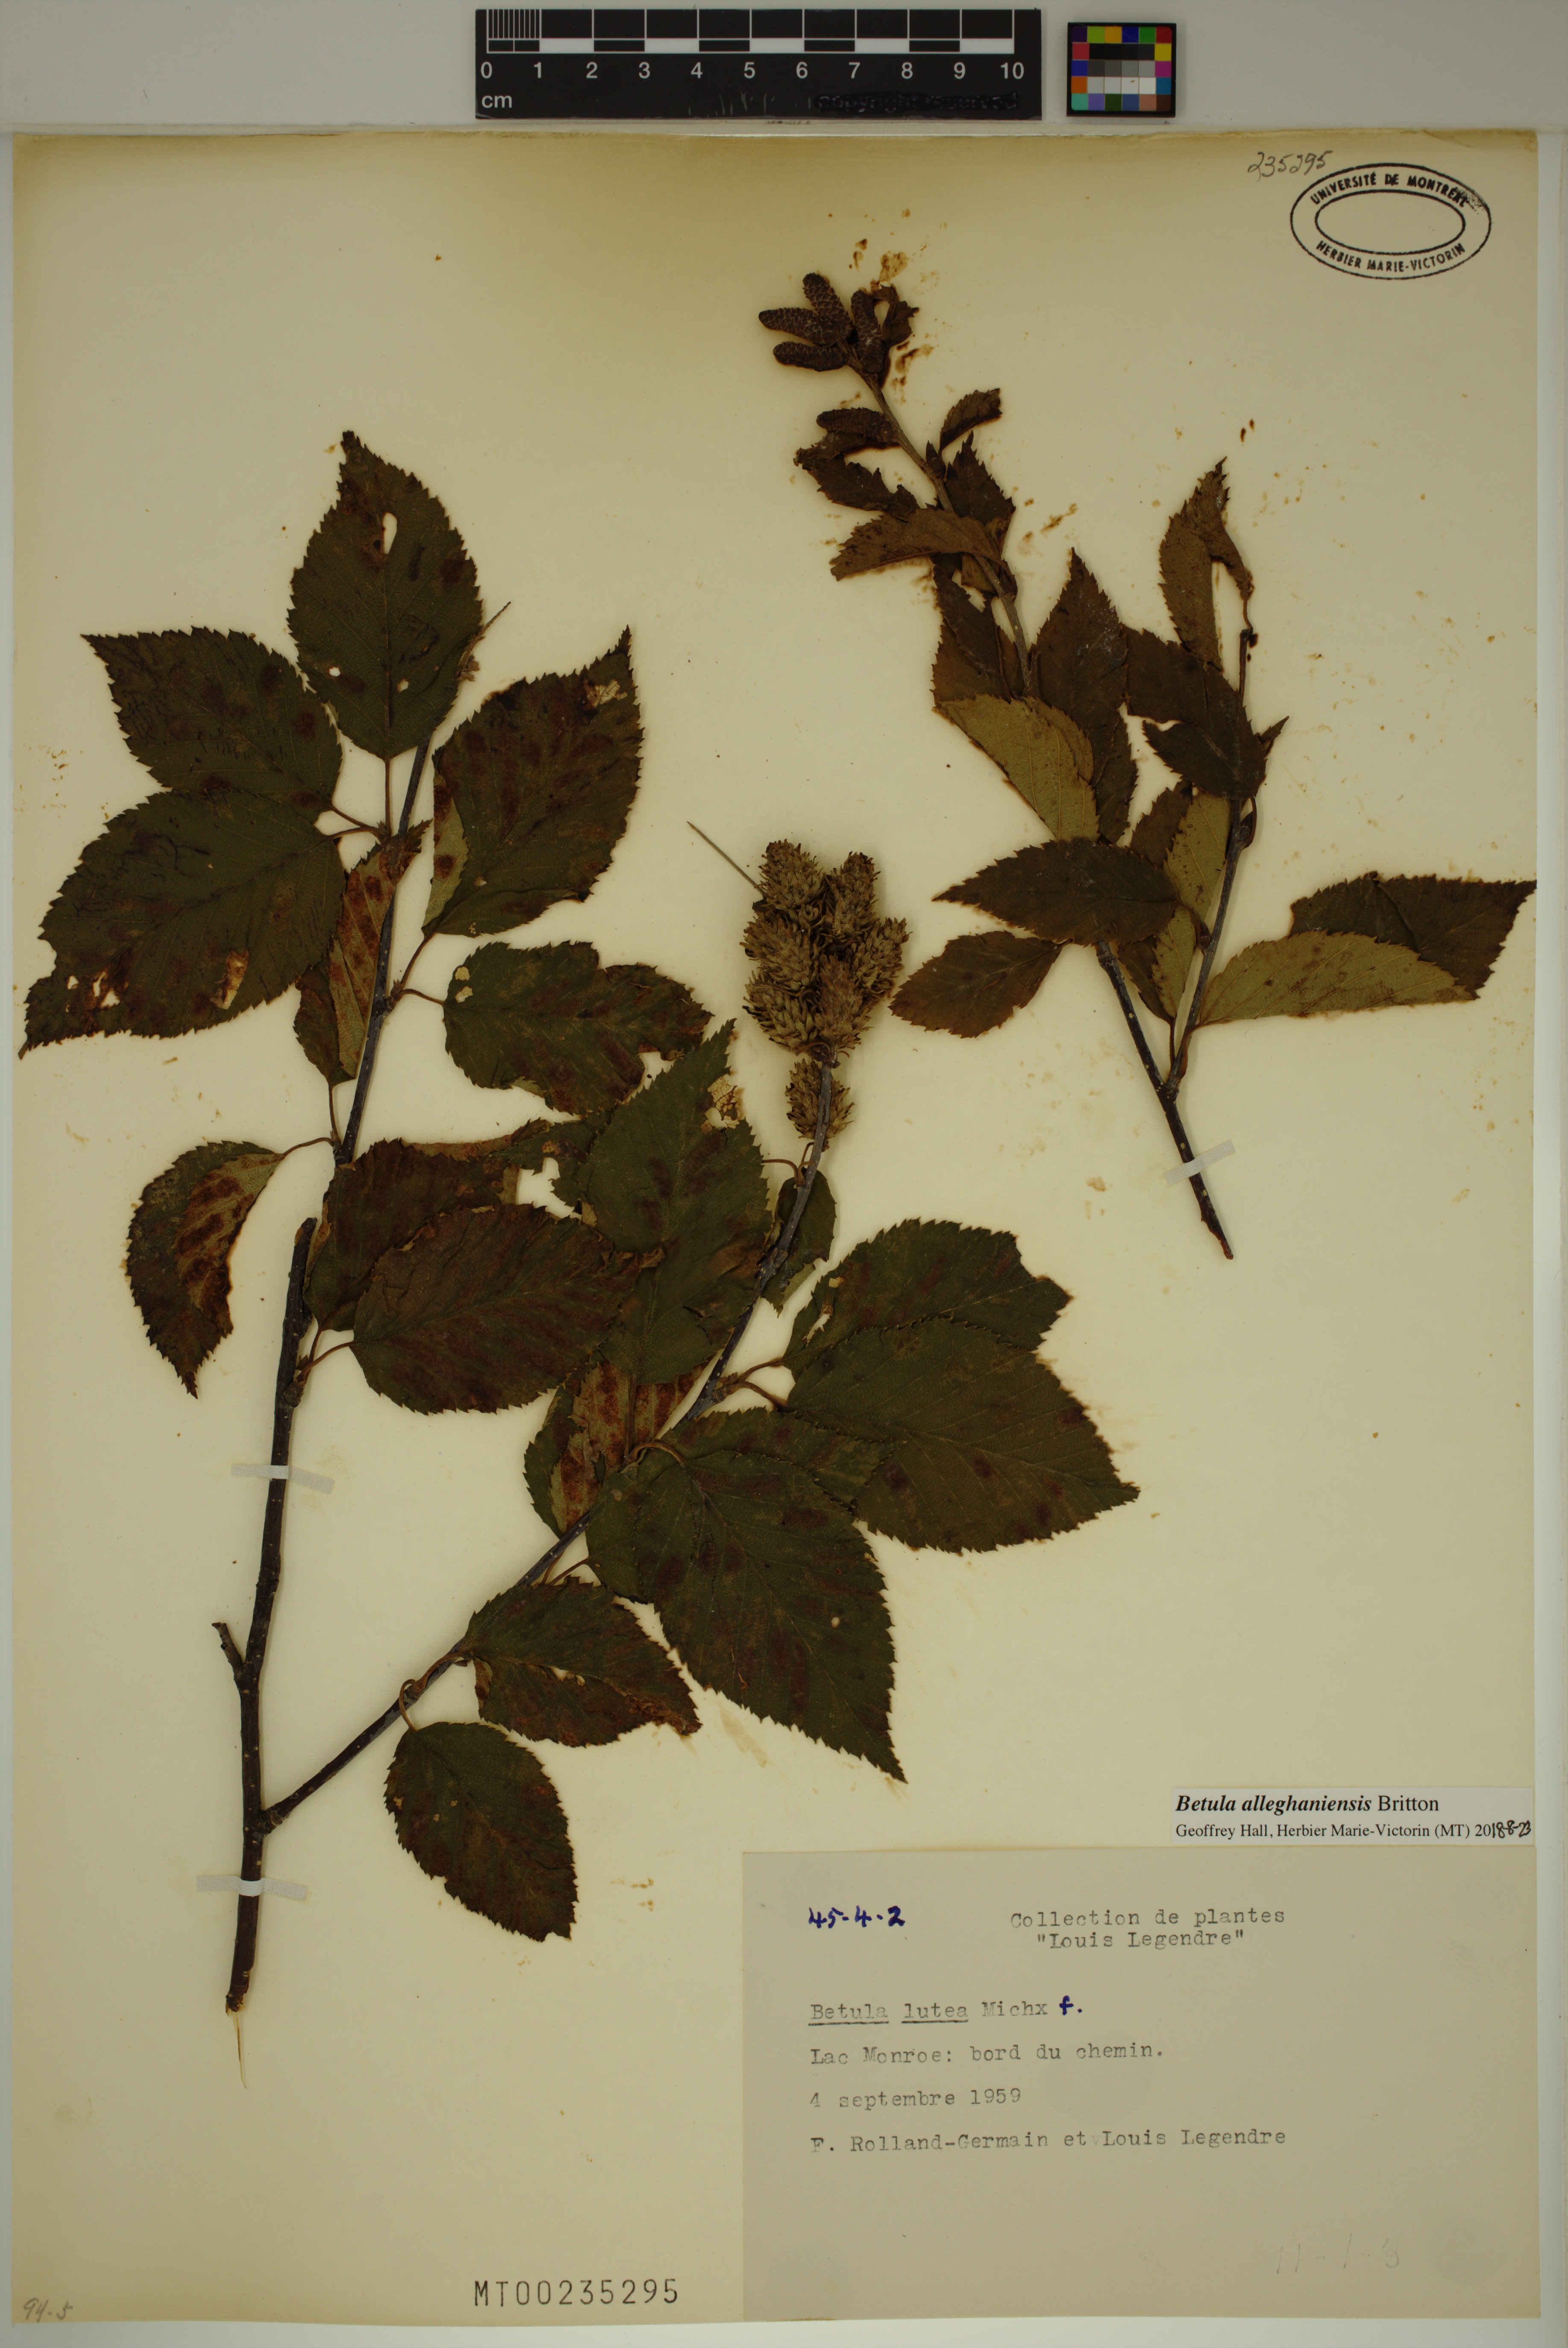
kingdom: Plantae
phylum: Tracheophyta
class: Magnoliopsida
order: Fagales
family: Betulaceae
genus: Betula
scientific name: Betula alleghaniensis
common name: Yellow birch
